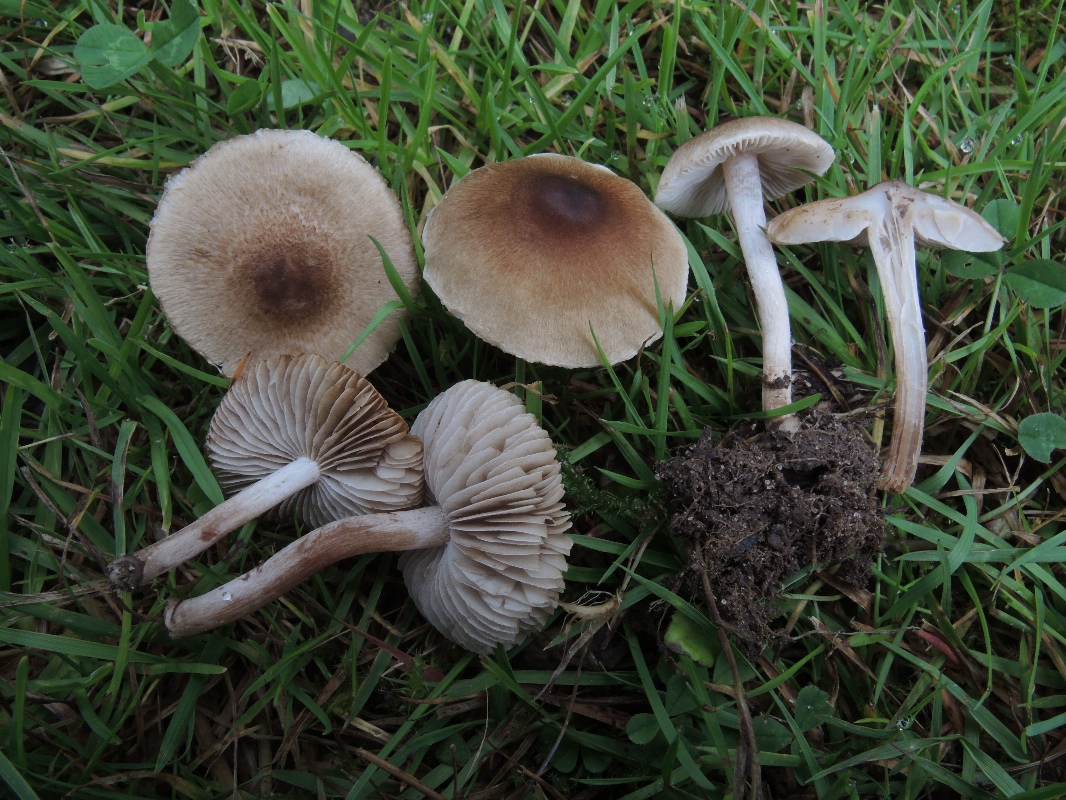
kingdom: Fungi
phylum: Basidiomycota
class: Agaricomycetes
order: Agaricales
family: Inocybaceae
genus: Inocybe
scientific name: Inocybe curvipes
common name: plæne-trævlhat
